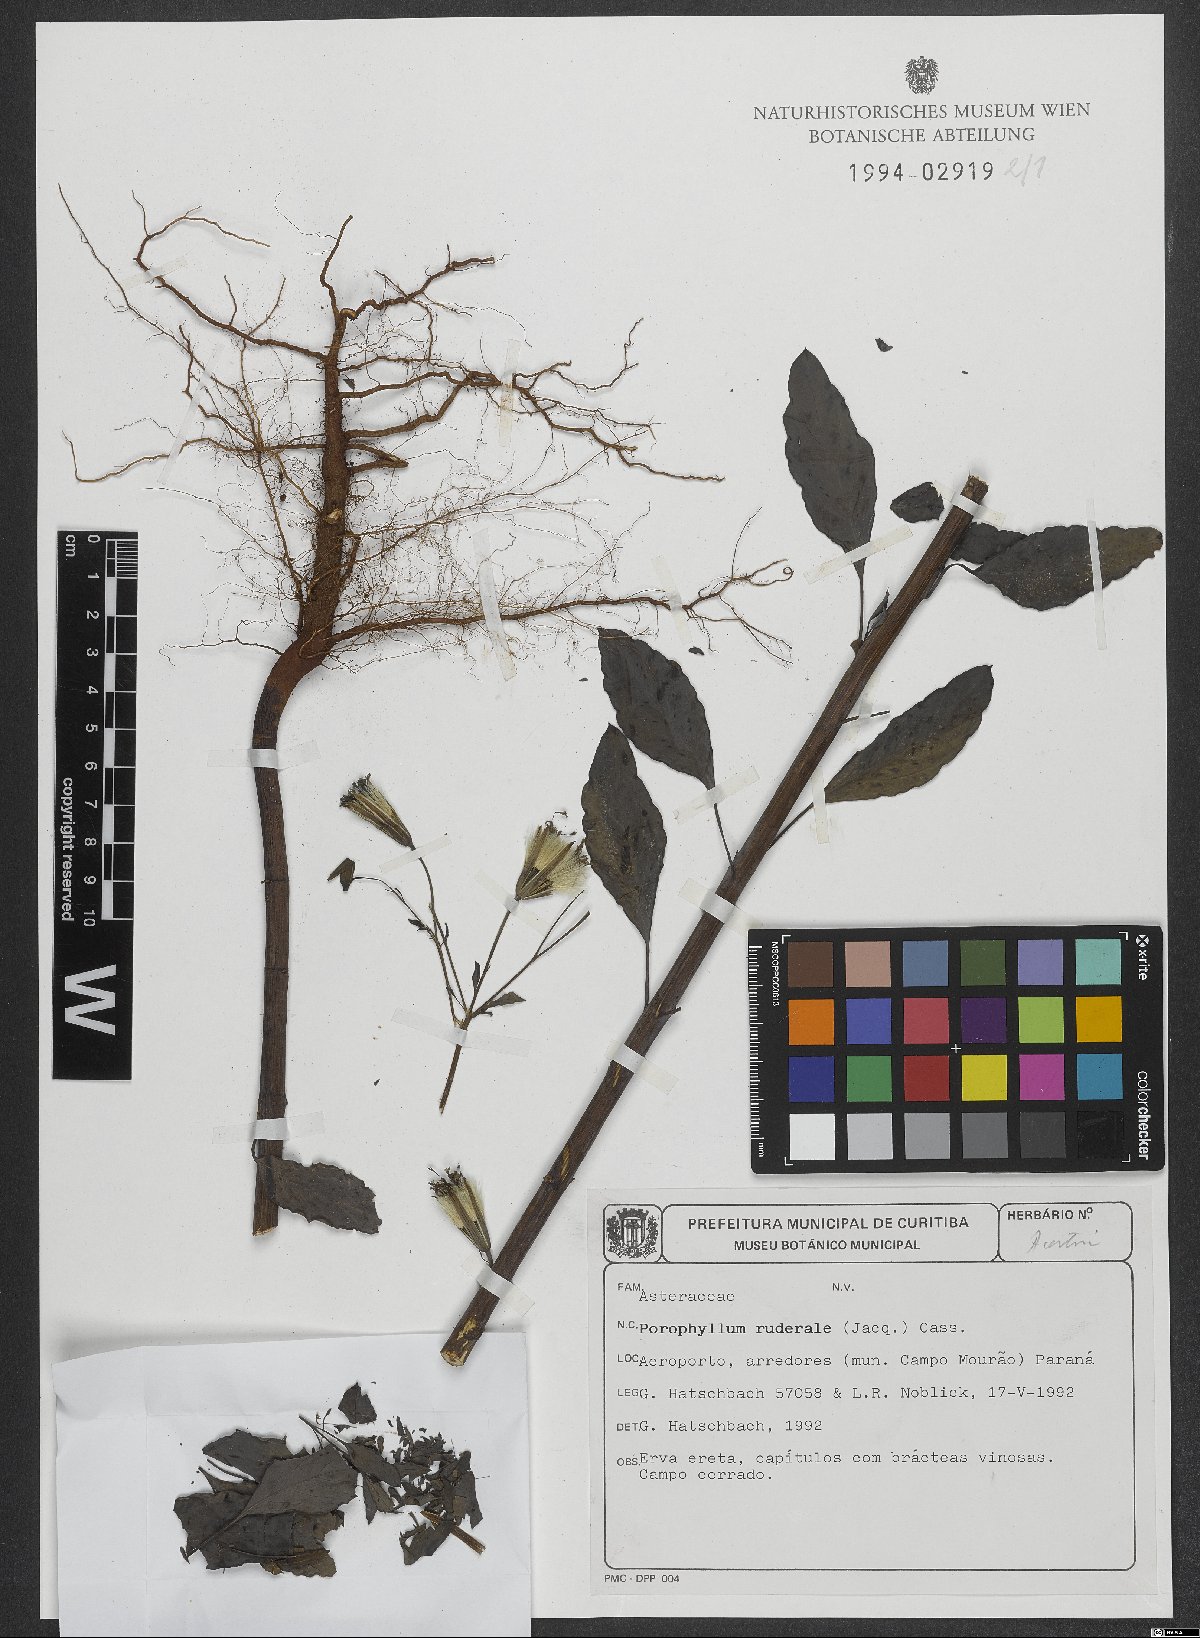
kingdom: Plantae
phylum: Tracheophyta
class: Magnoliopsida
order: Asterales
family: Asteraceae
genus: Porophyllum
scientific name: Porophyllum ruderale
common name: Yerba porosa
